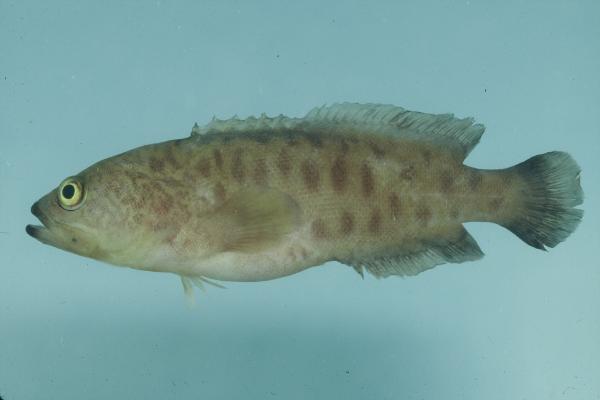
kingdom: Animalia
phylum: Chordata
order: Perciformes
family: Serranidae
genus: Aporops
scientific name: Aporops bilinearis
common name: Poreless podge
